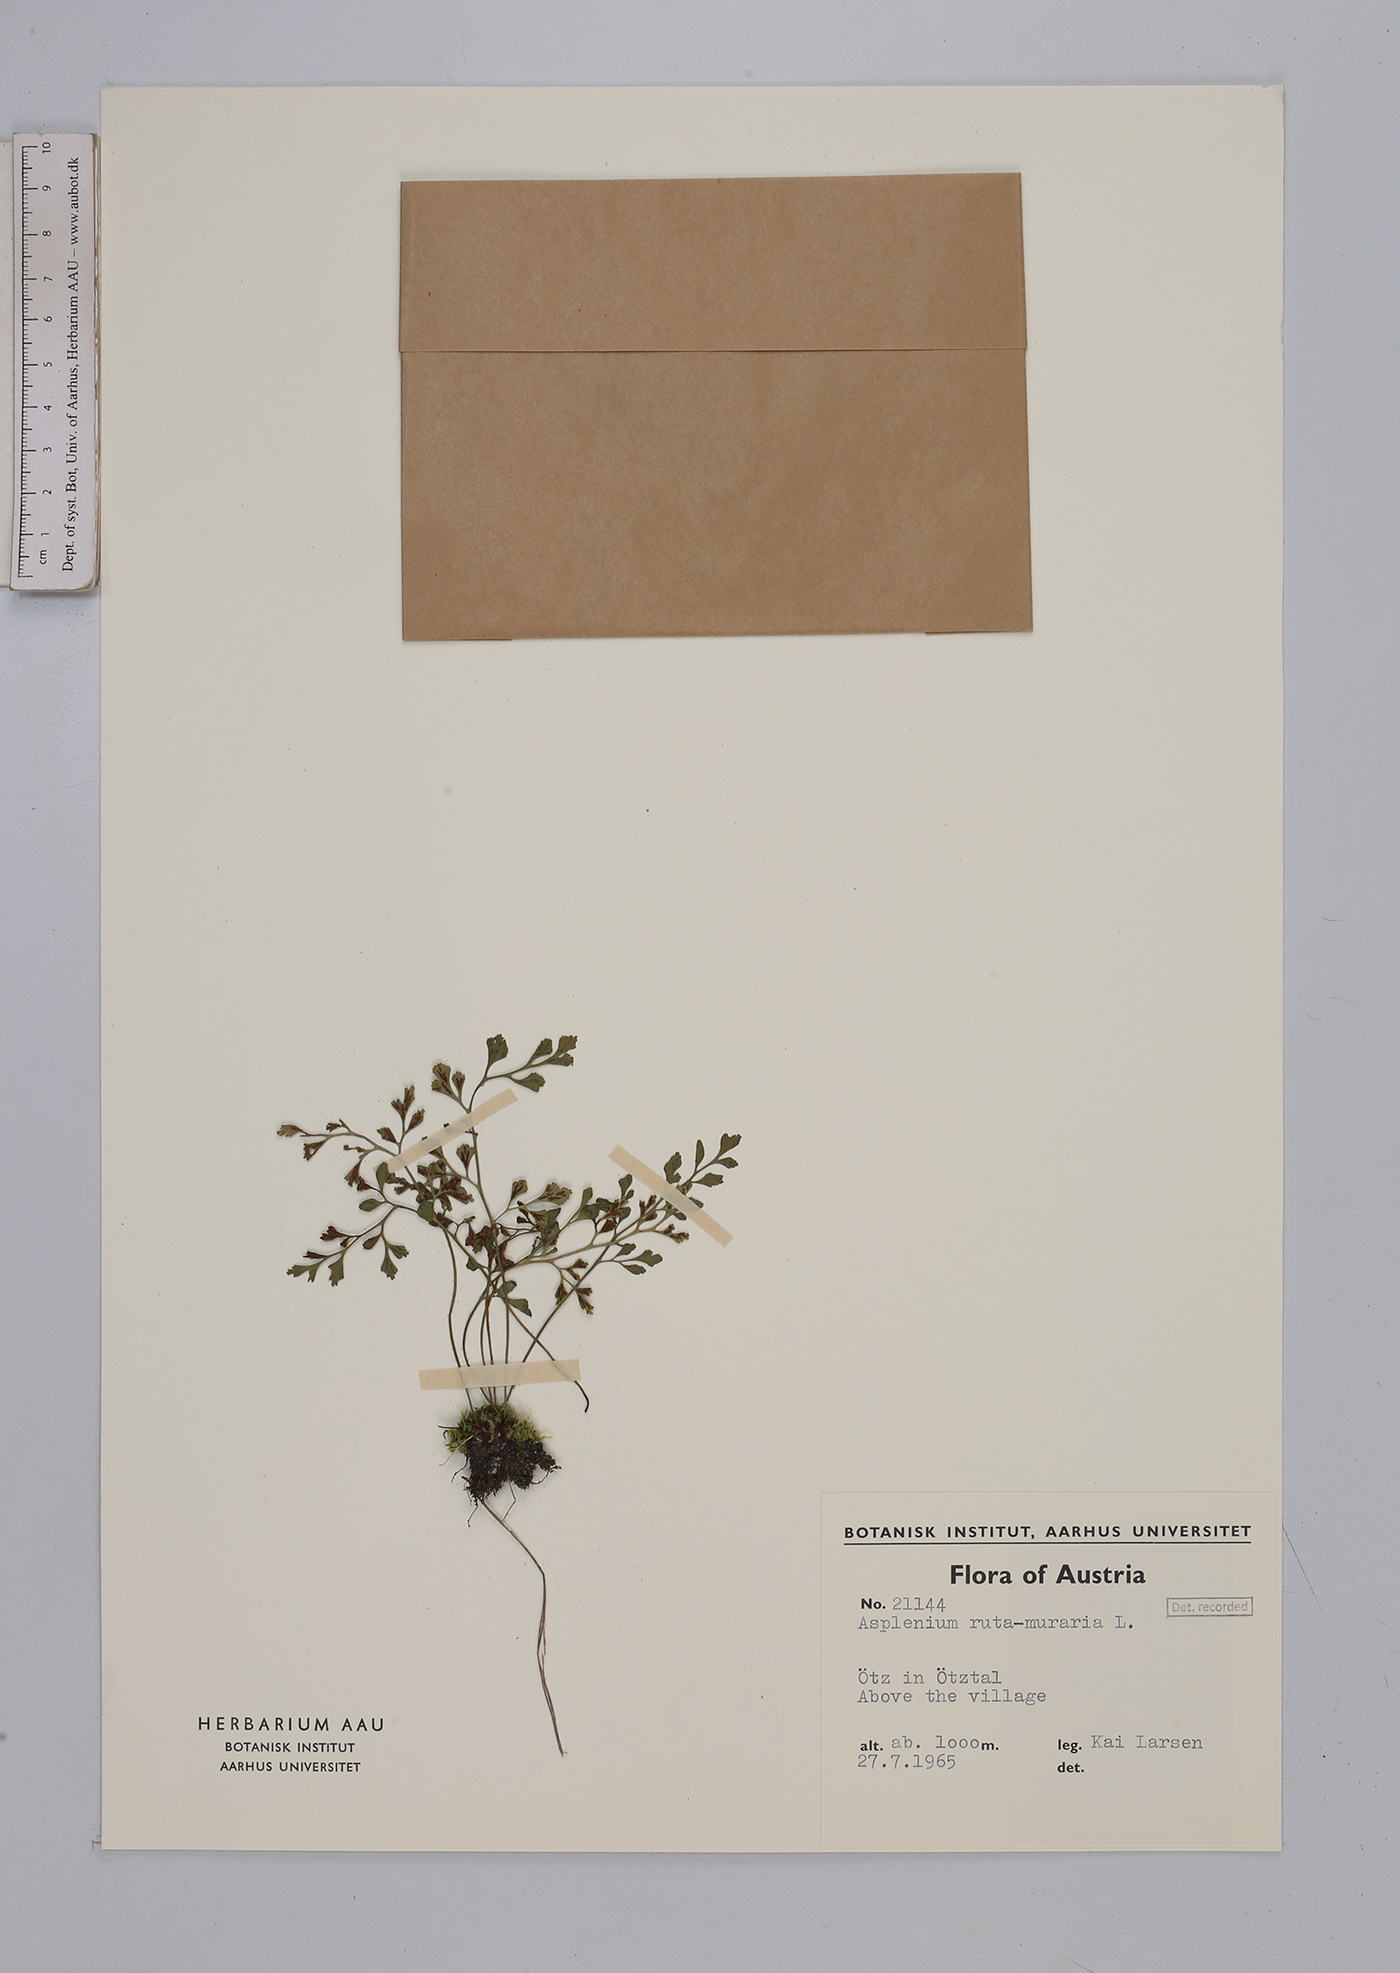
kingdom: Plantae
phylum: Tracheophyta
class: Polypodiopsida
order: Polypodiales
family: Aspleniaceae
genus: Asplenium
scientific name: Asplenium ruta-muraria
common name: Wall-rue
